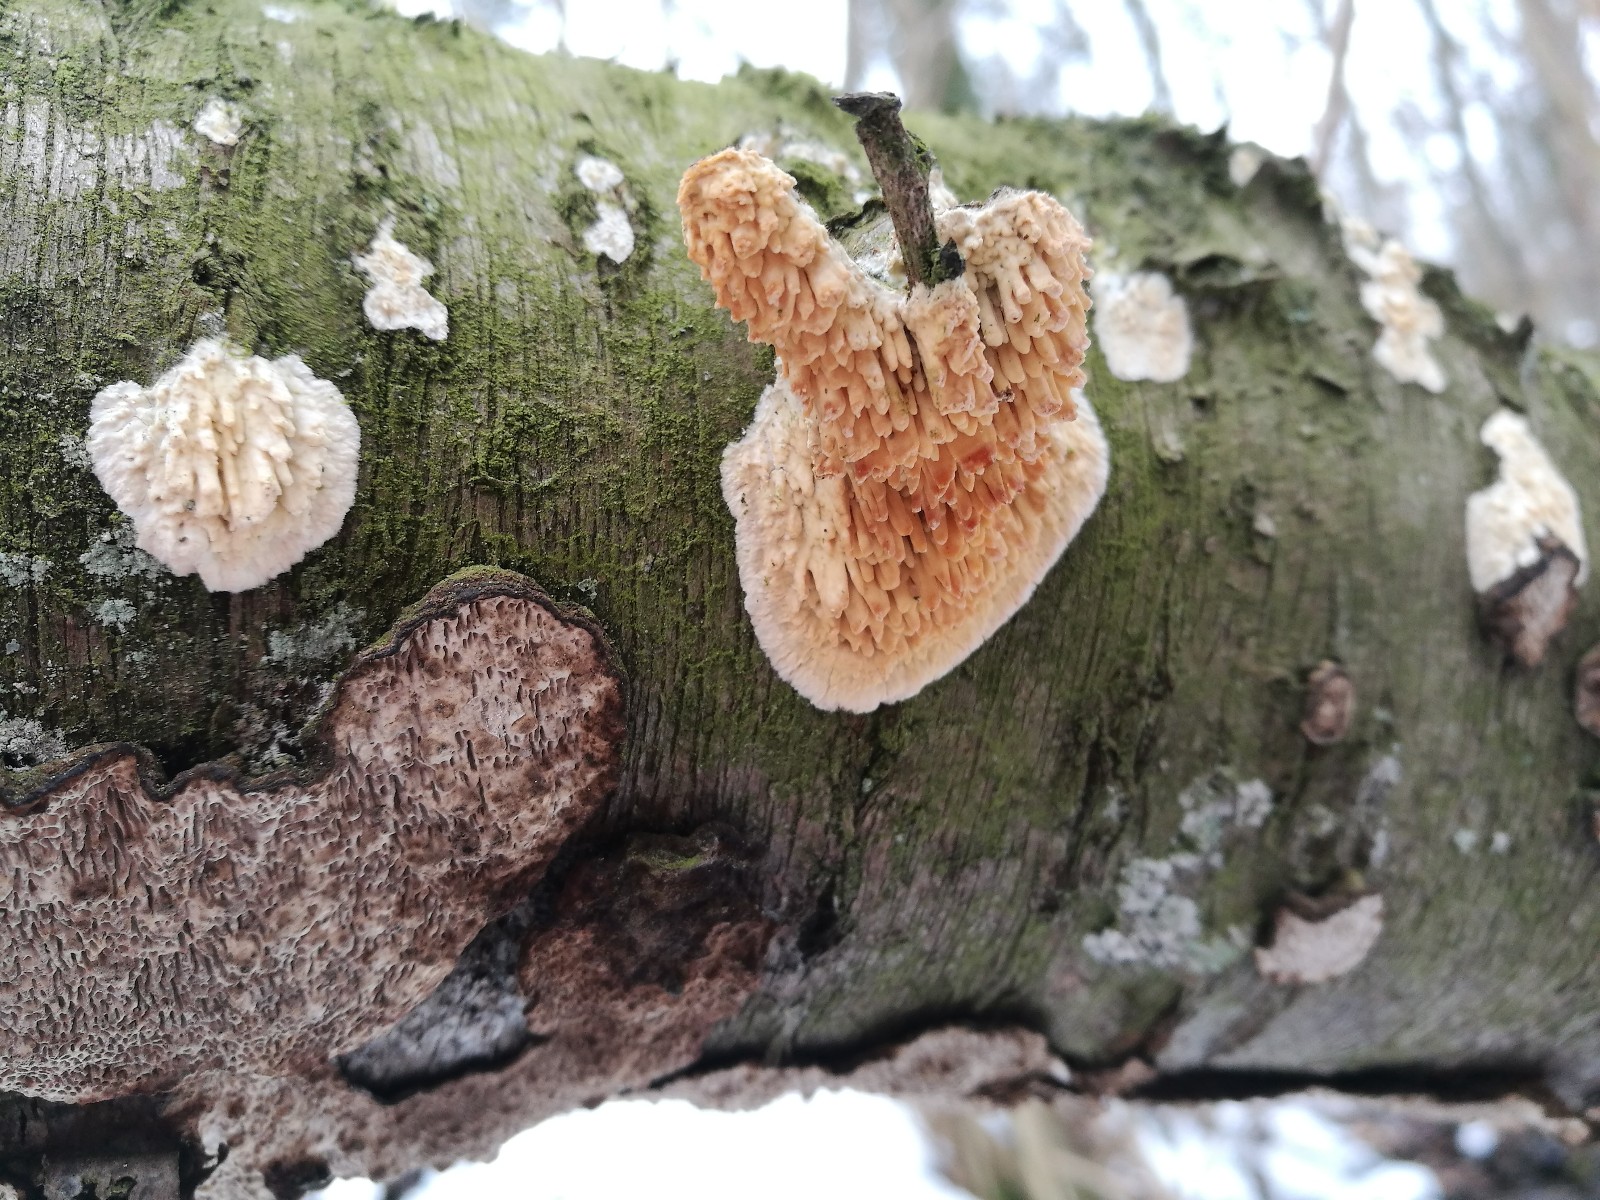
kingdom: Fungi
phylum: Basidiomycota
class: Agaricomycetes
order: Hymenochaetales
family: Schizoporaceae
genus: Xylodon
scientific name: Xylodon radula
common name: grovtandet kalkskind
